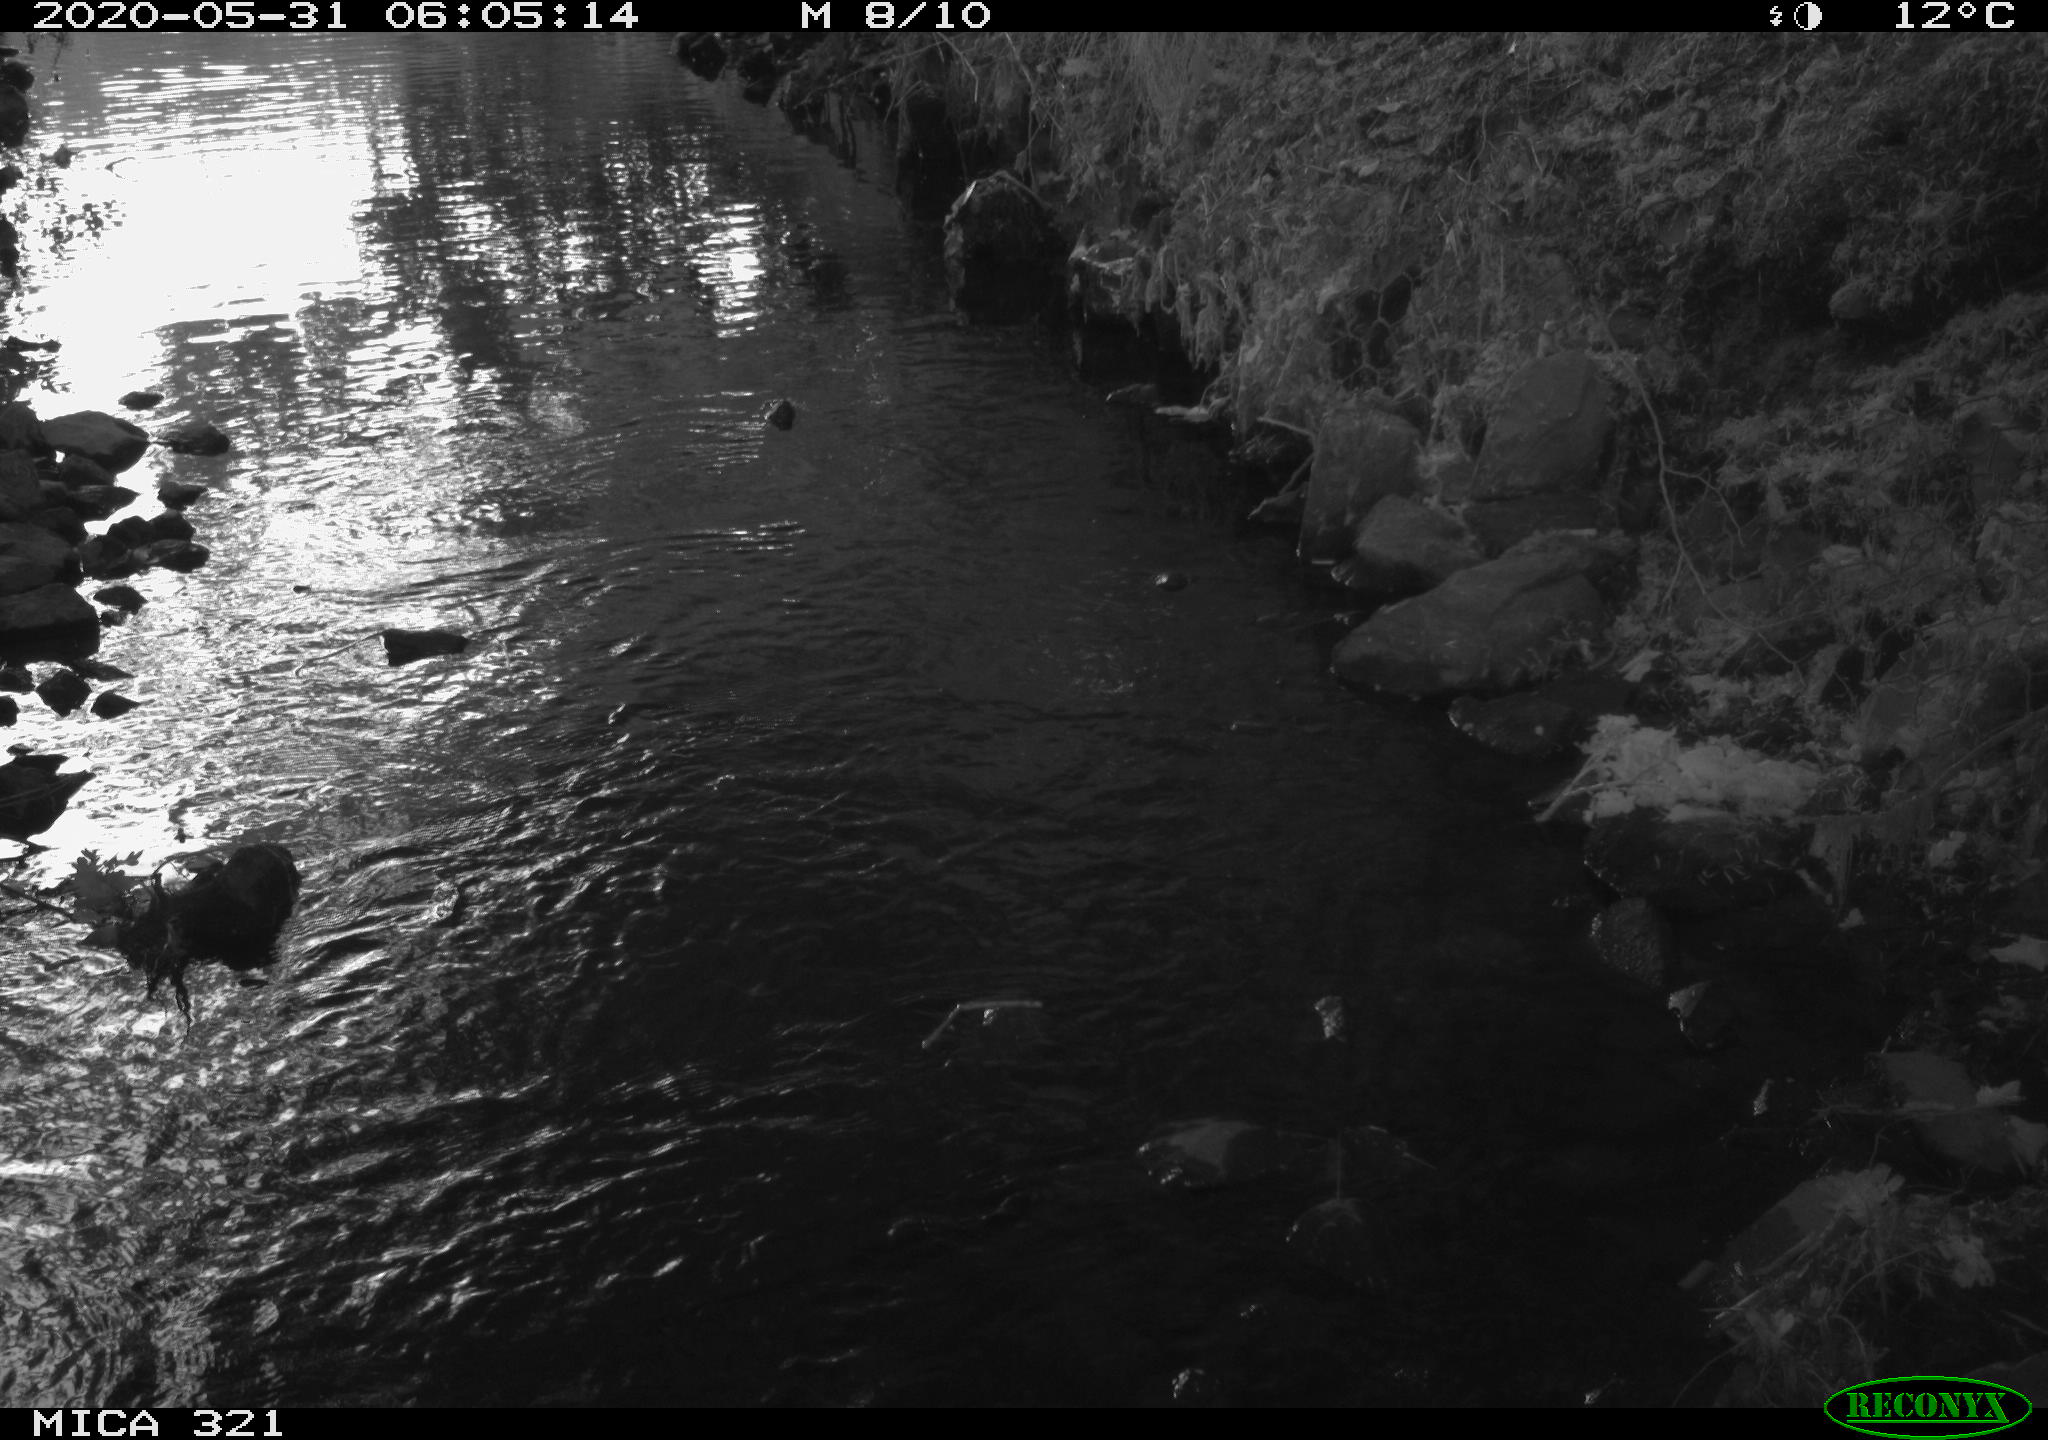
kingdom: Animalia
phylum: Chordata
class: Aves
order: Anseriformes
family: Anatidae
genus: Anas
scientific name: Anas platyrhynchos
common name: Mallard
